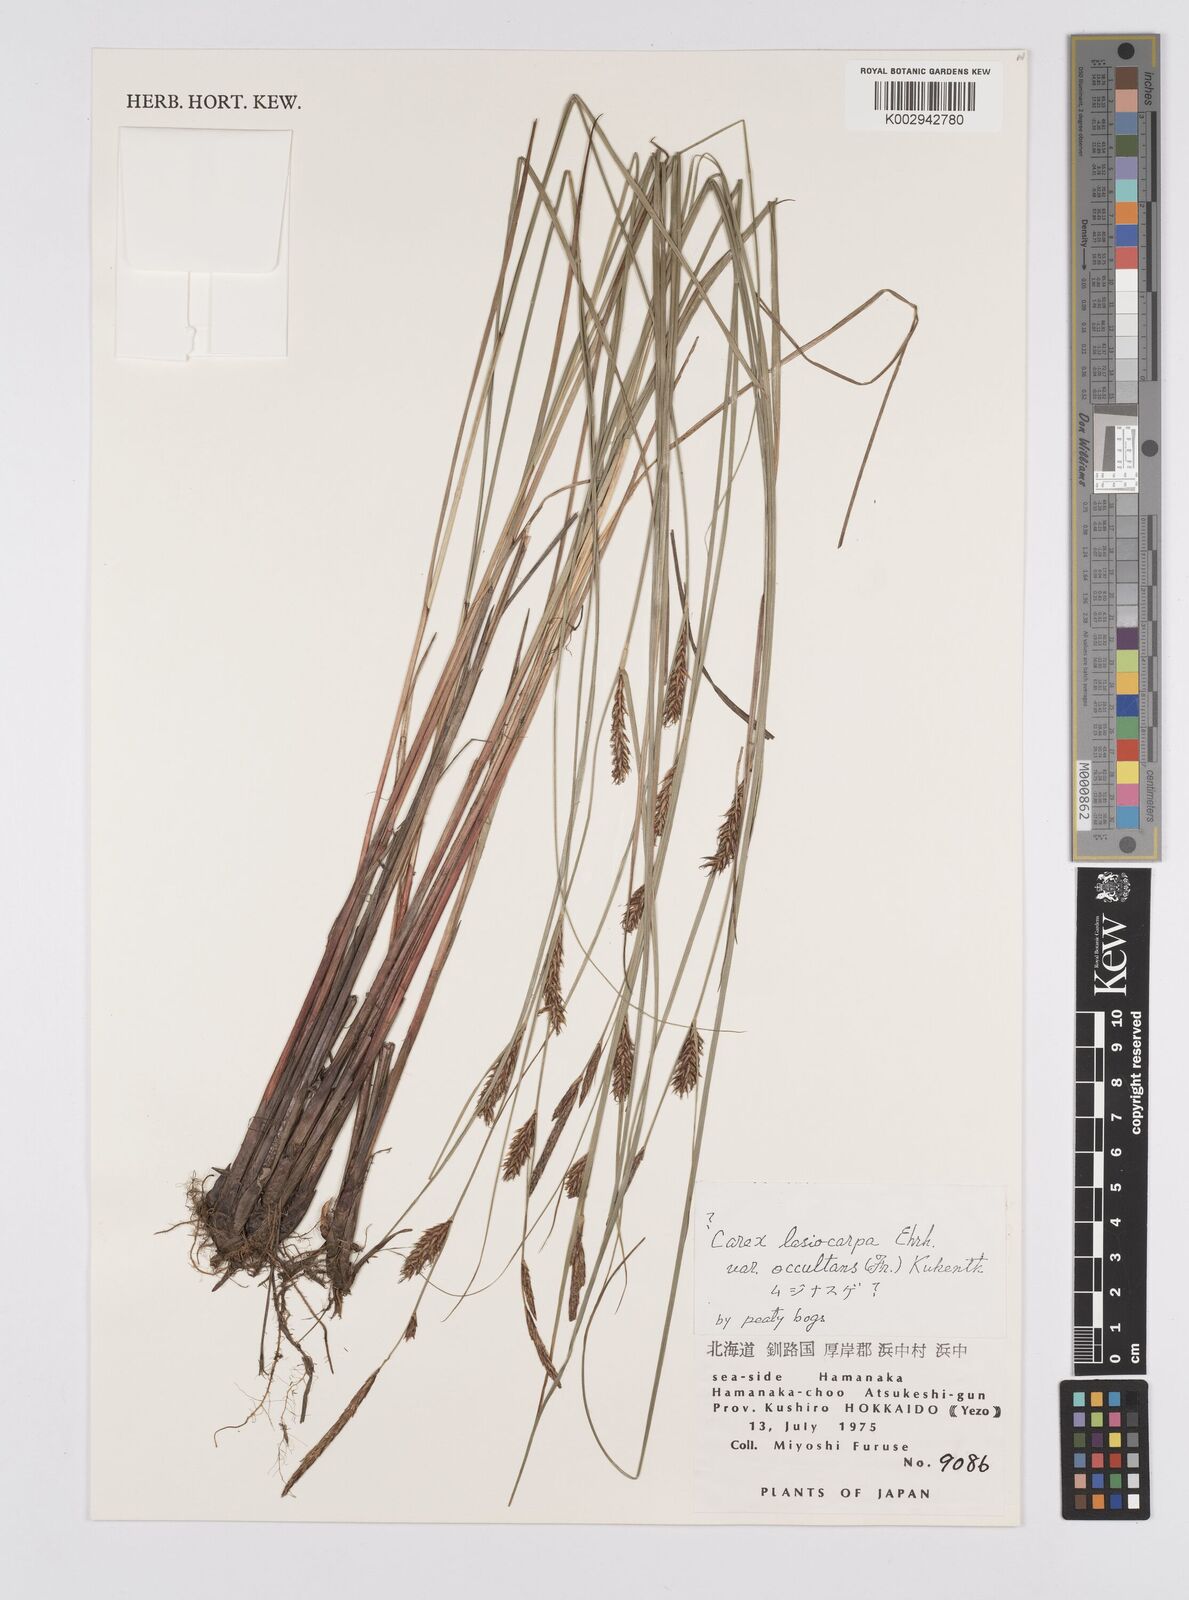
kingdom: Plantae
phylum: Tracheophyta
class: Liliopsida
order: Poales
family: Cyperaceae
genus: Carex
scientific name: Carex lasiocarpa
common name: Slender sedge
